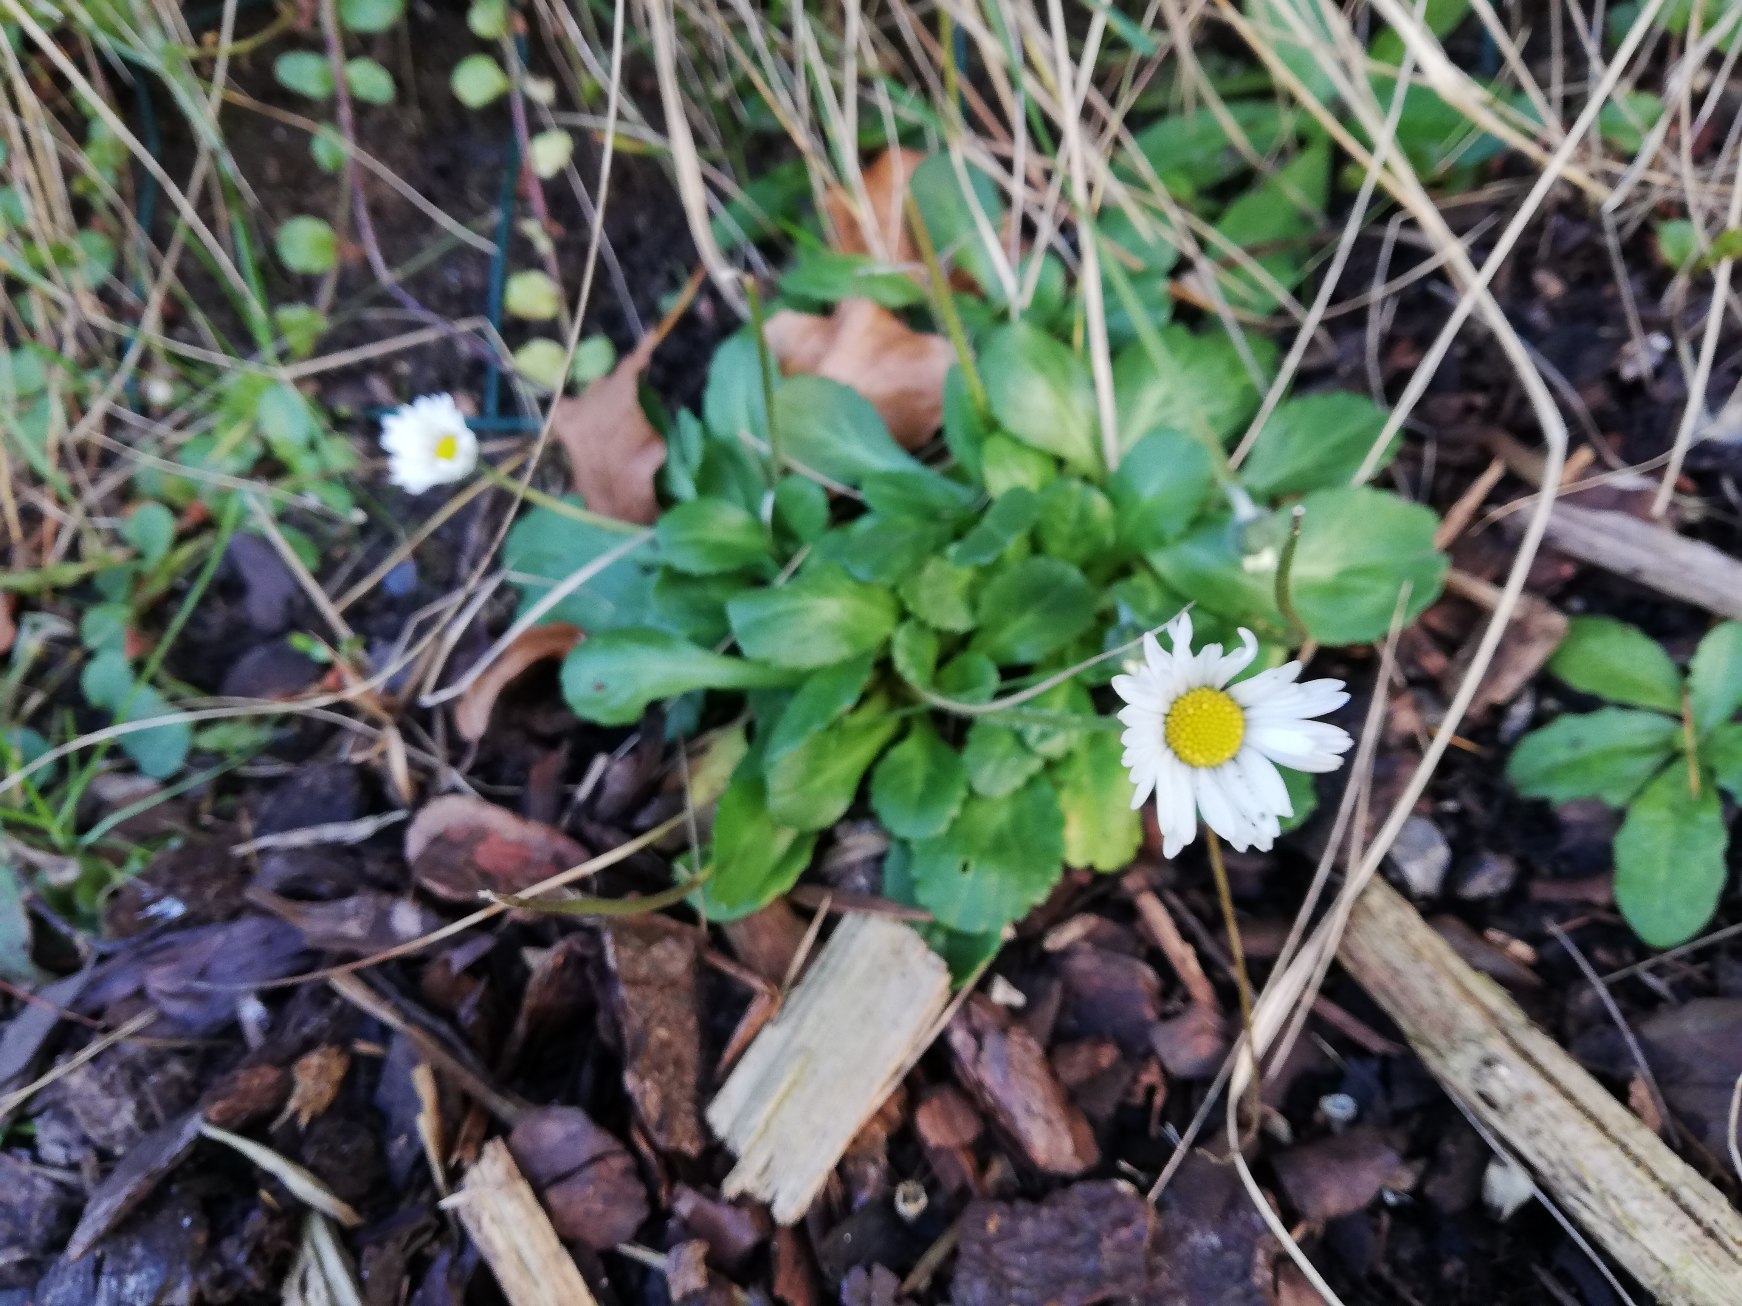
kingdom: Plantae
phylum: Tracheophyta
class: Magnoliopsida
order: Asterales
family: Asteraceae
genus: Bellis
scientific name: Bellis perennis
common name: Tusindfryd
